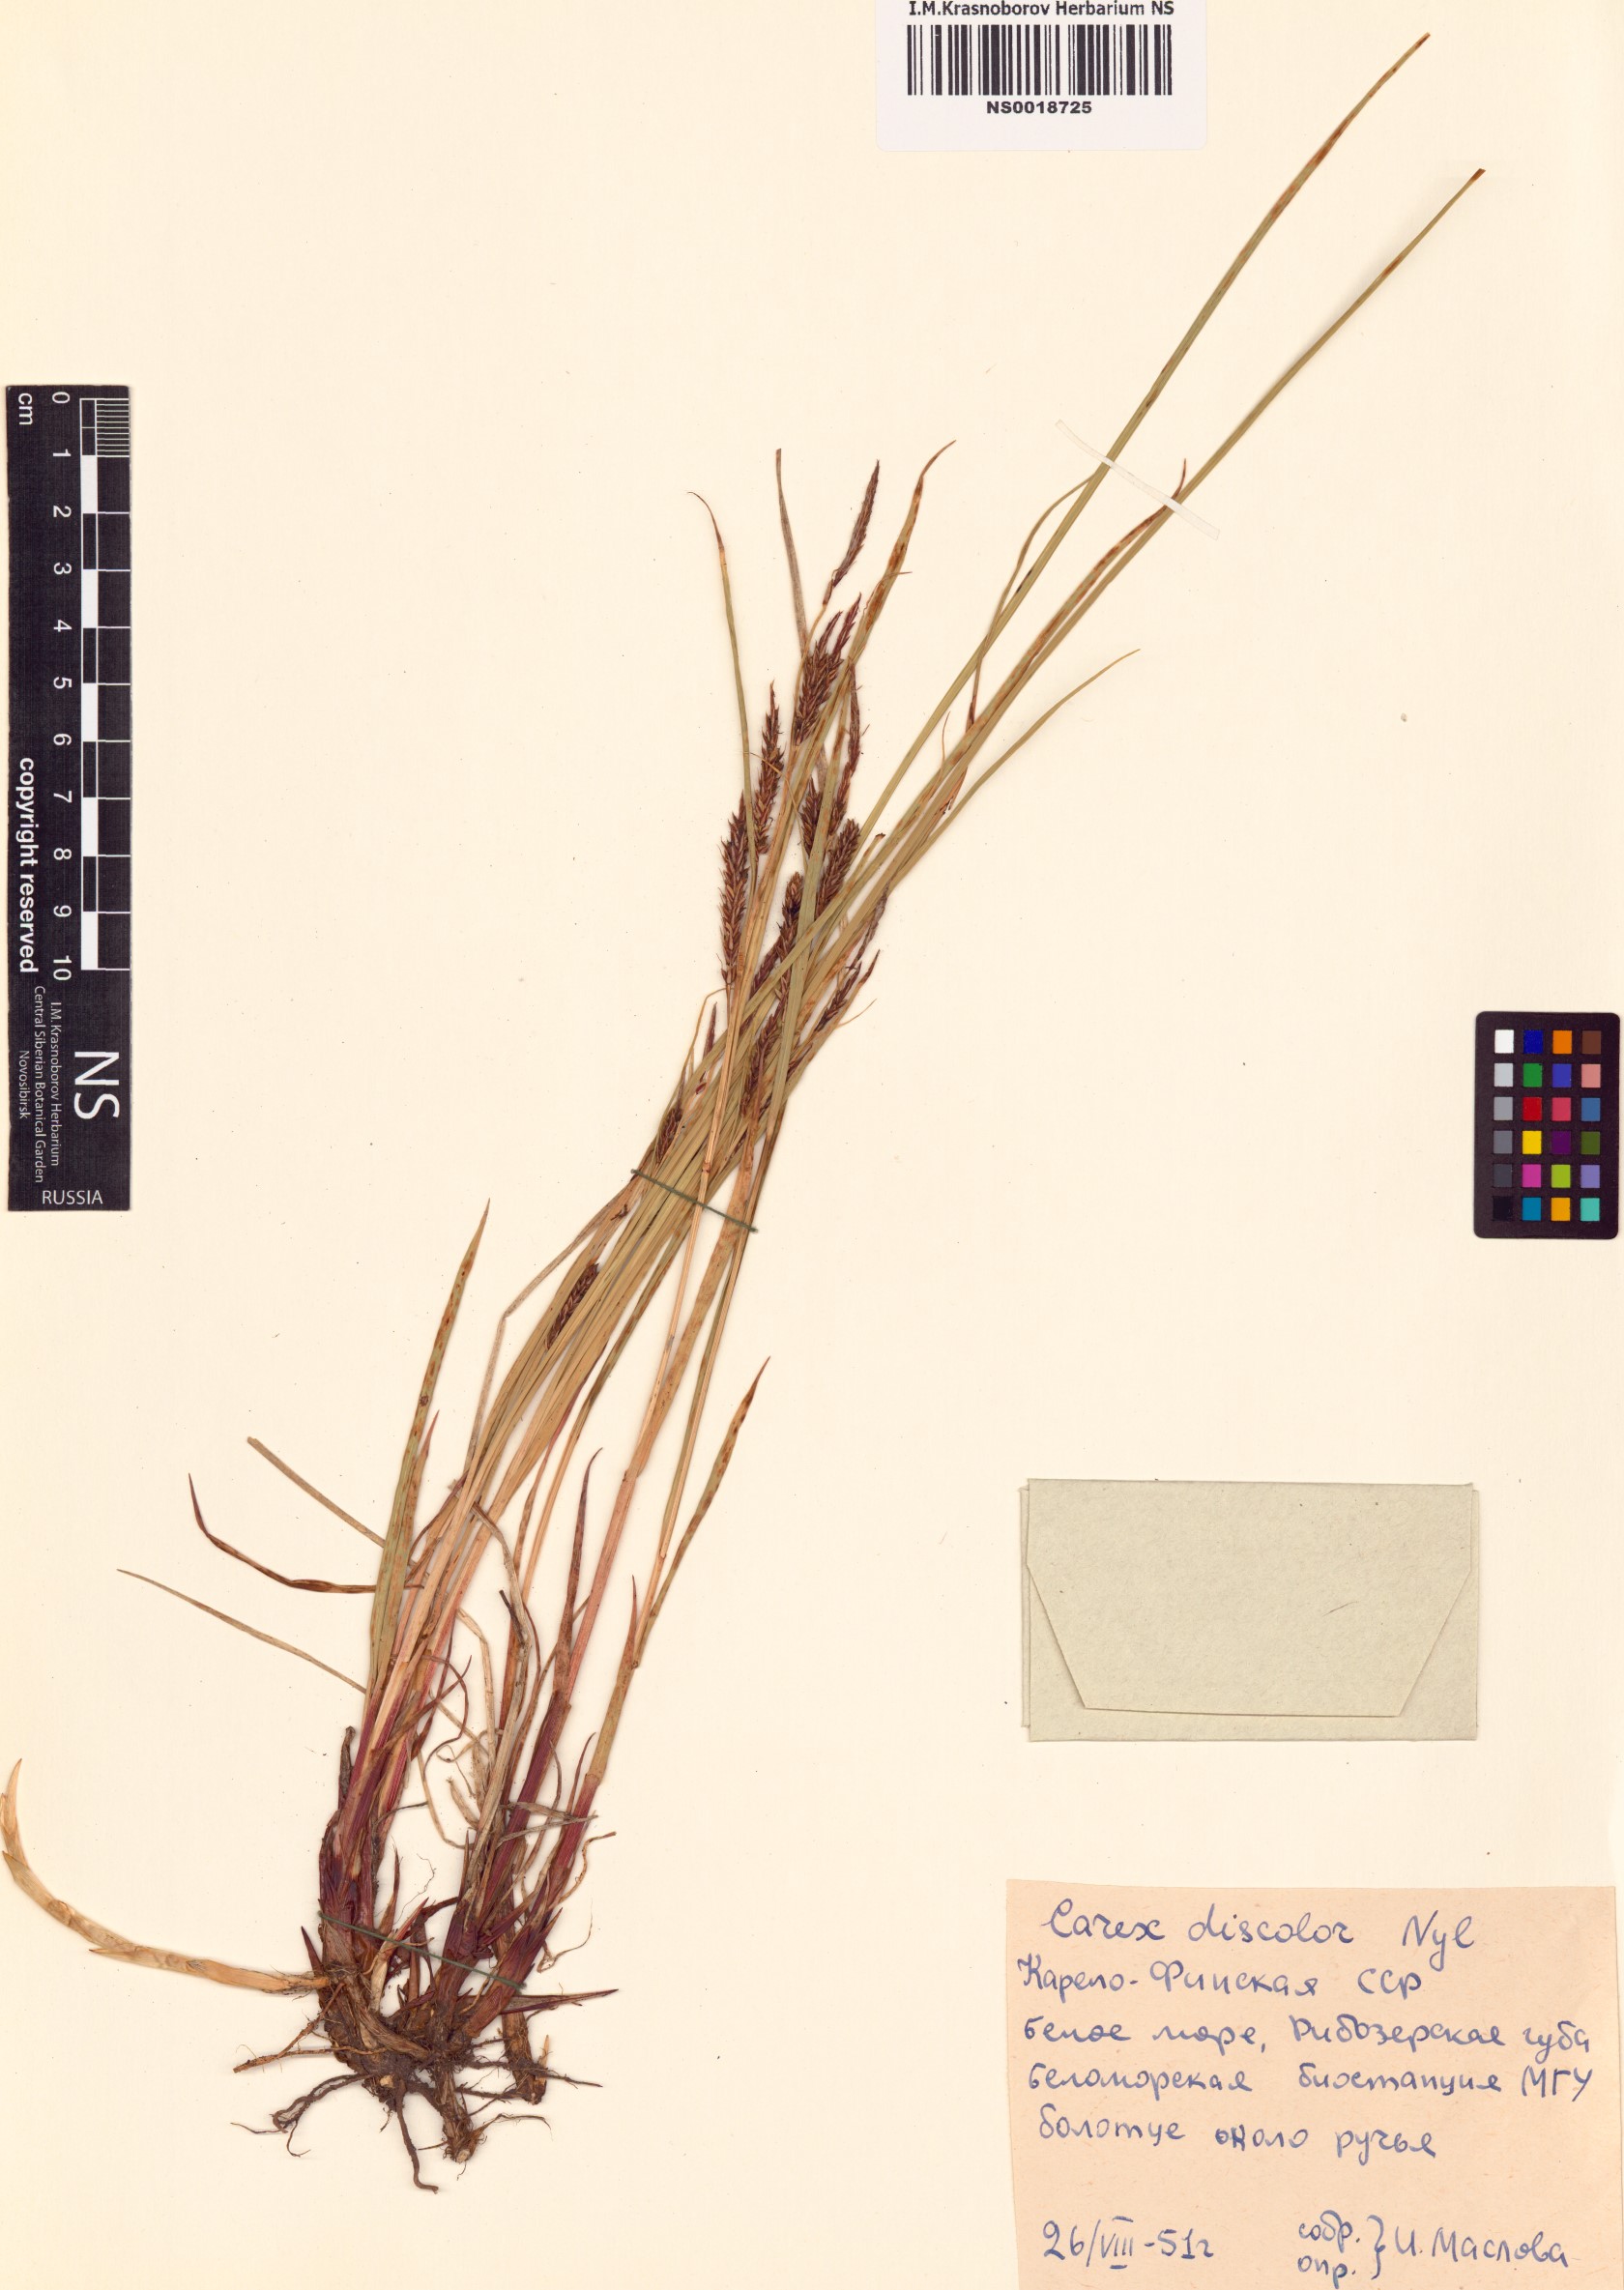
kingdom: Plantae
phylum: Tracheophyta
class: Liliopsida
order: Poales
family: Cyperaceae
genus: Carex
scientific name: Carex salina
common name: Saltmarsh sedge
